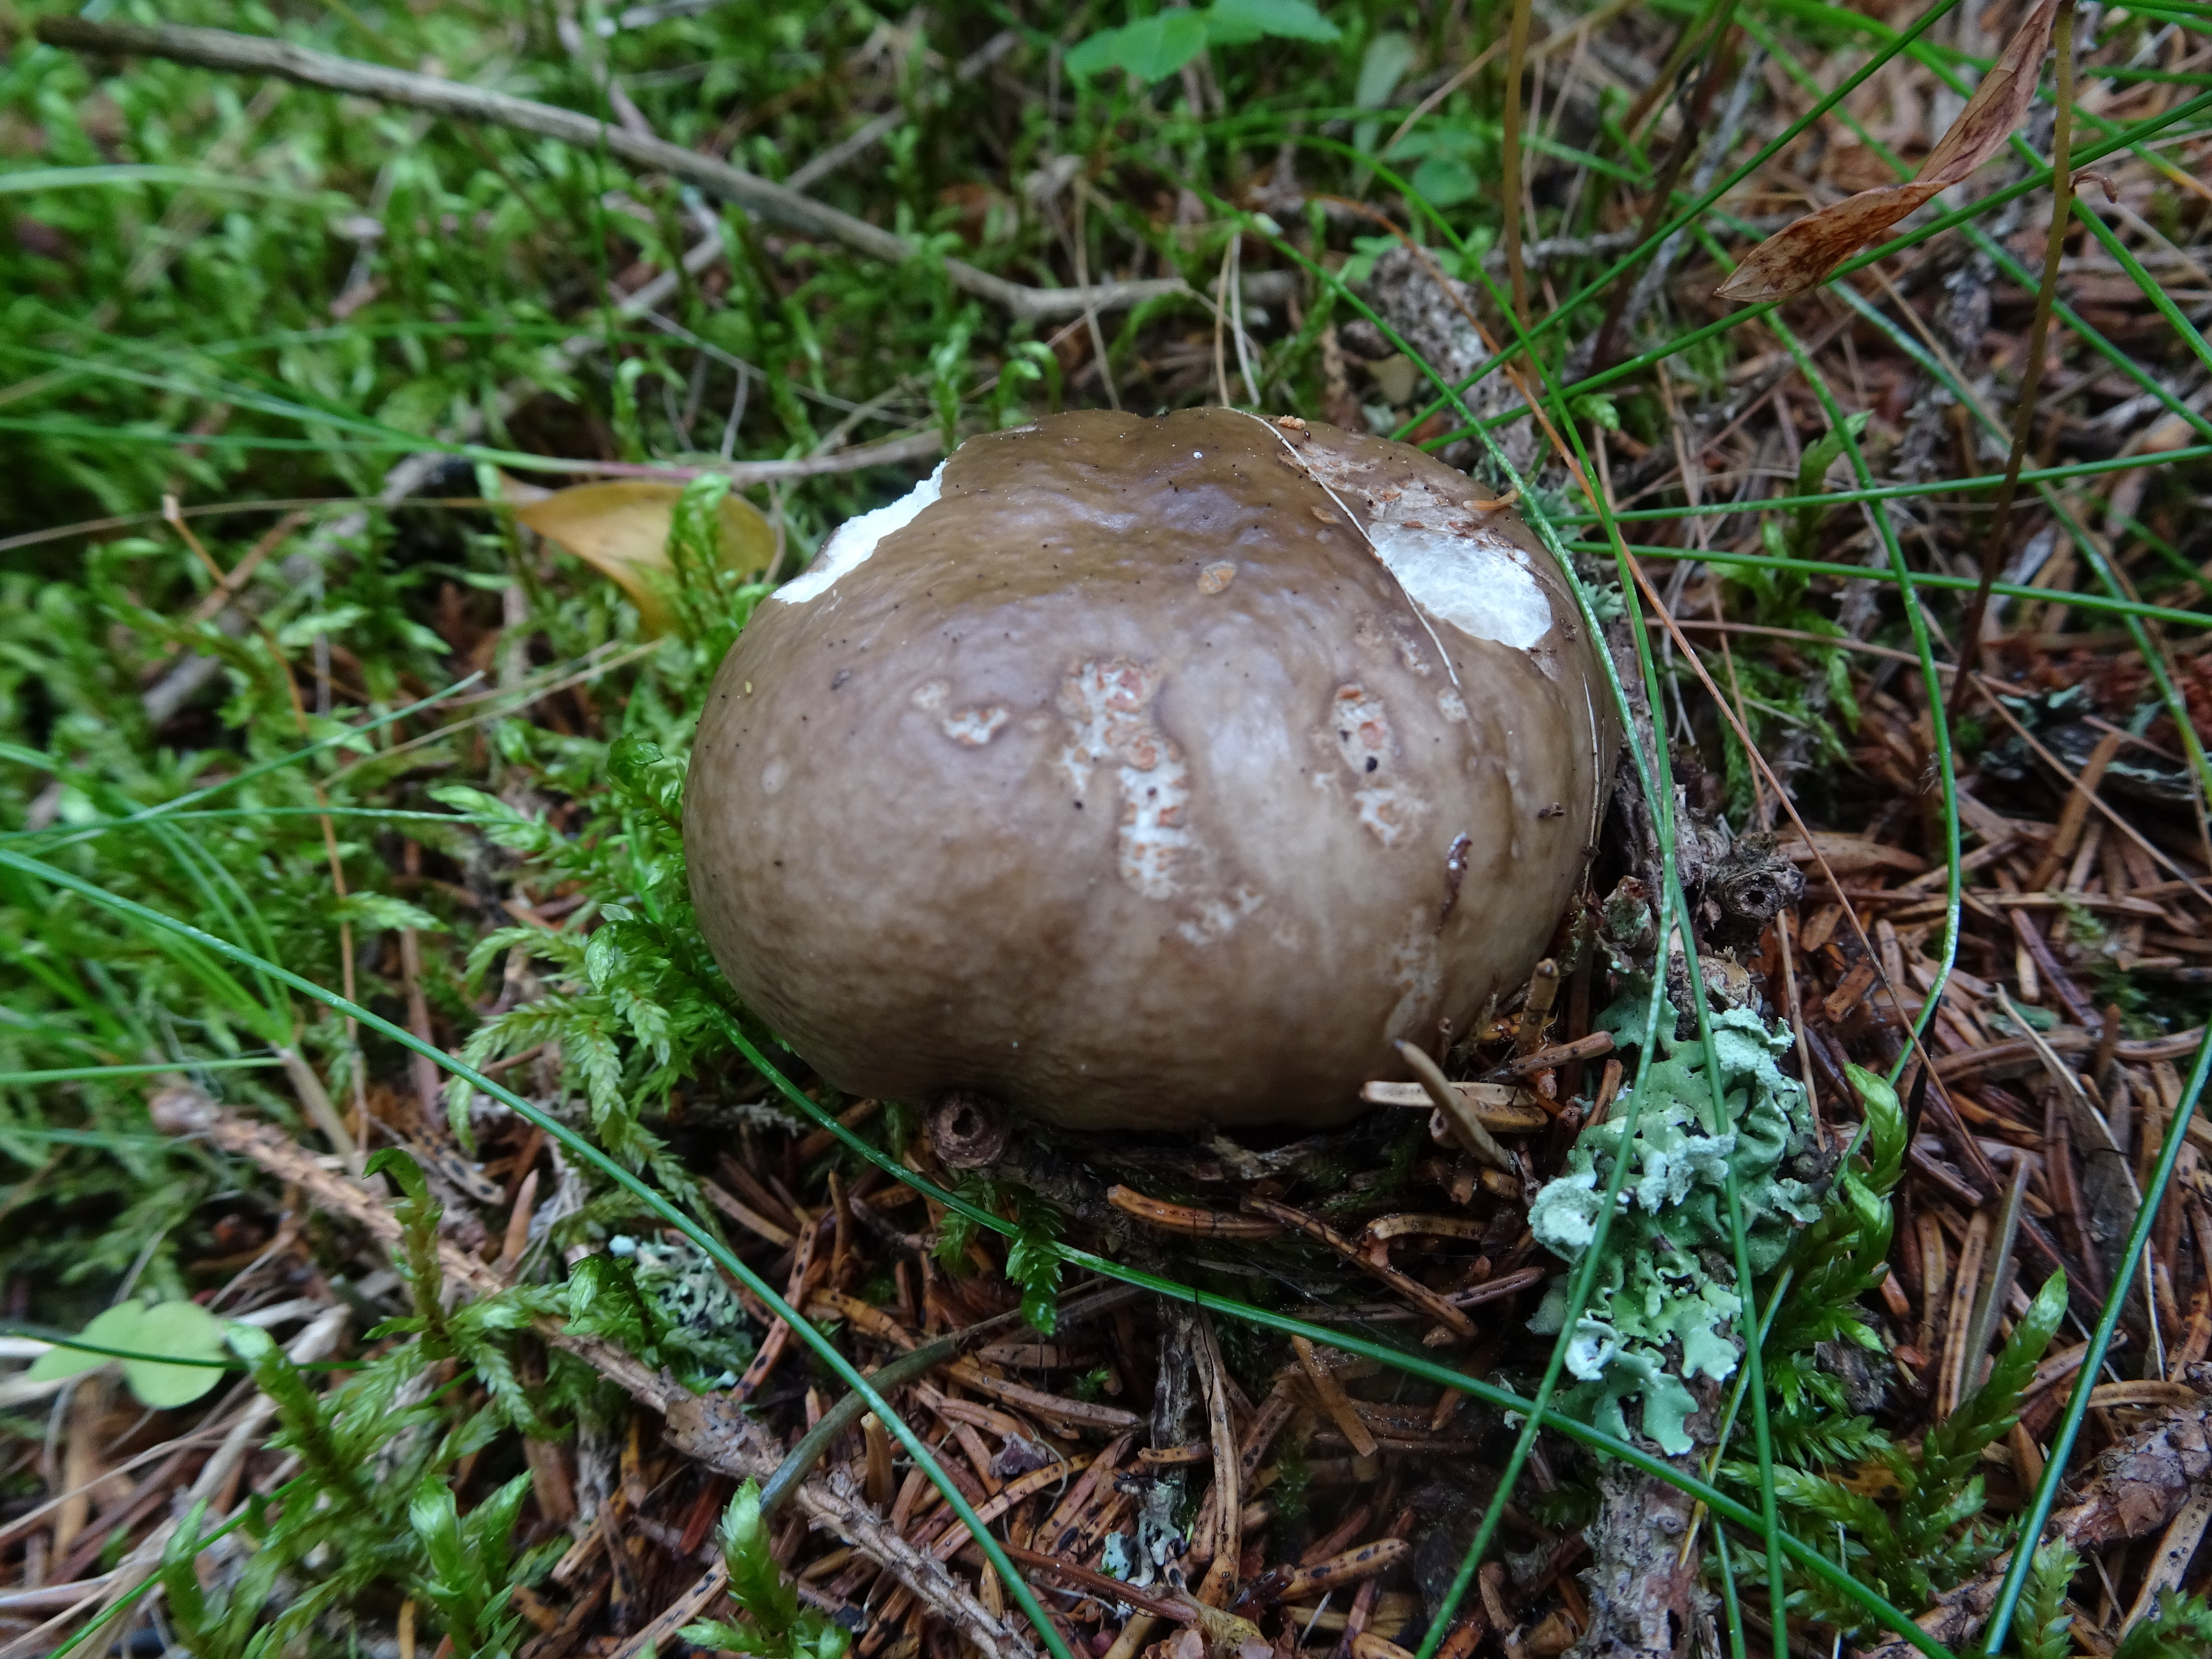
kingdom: Fungi
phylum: Basidiomycota
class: Agaricomycetes
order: Russulales
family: Russulaceae
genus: Russula
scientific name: Russula consobrina
